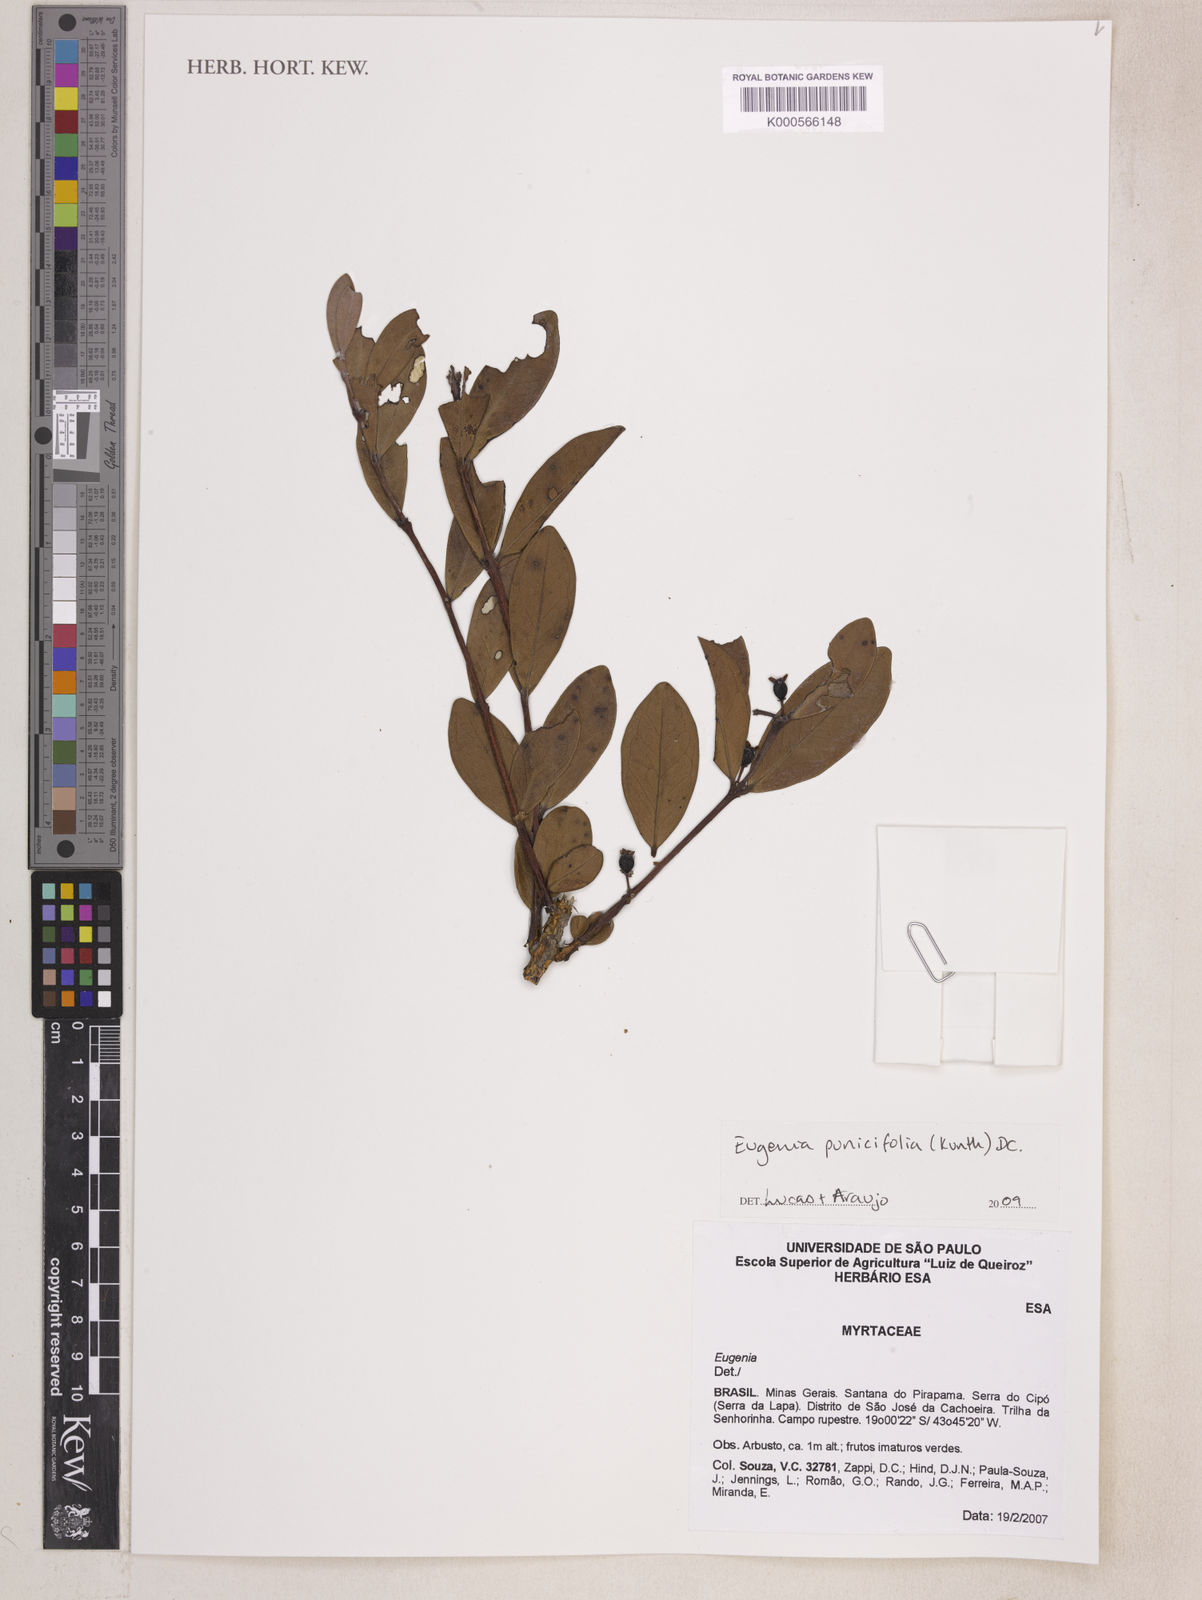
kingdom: Plantae
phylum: Tracheophyta
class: Magnoliopsida
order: Myrtales
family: Myrtaceae
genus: Eugenia
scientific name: Eugenia punicifolia
